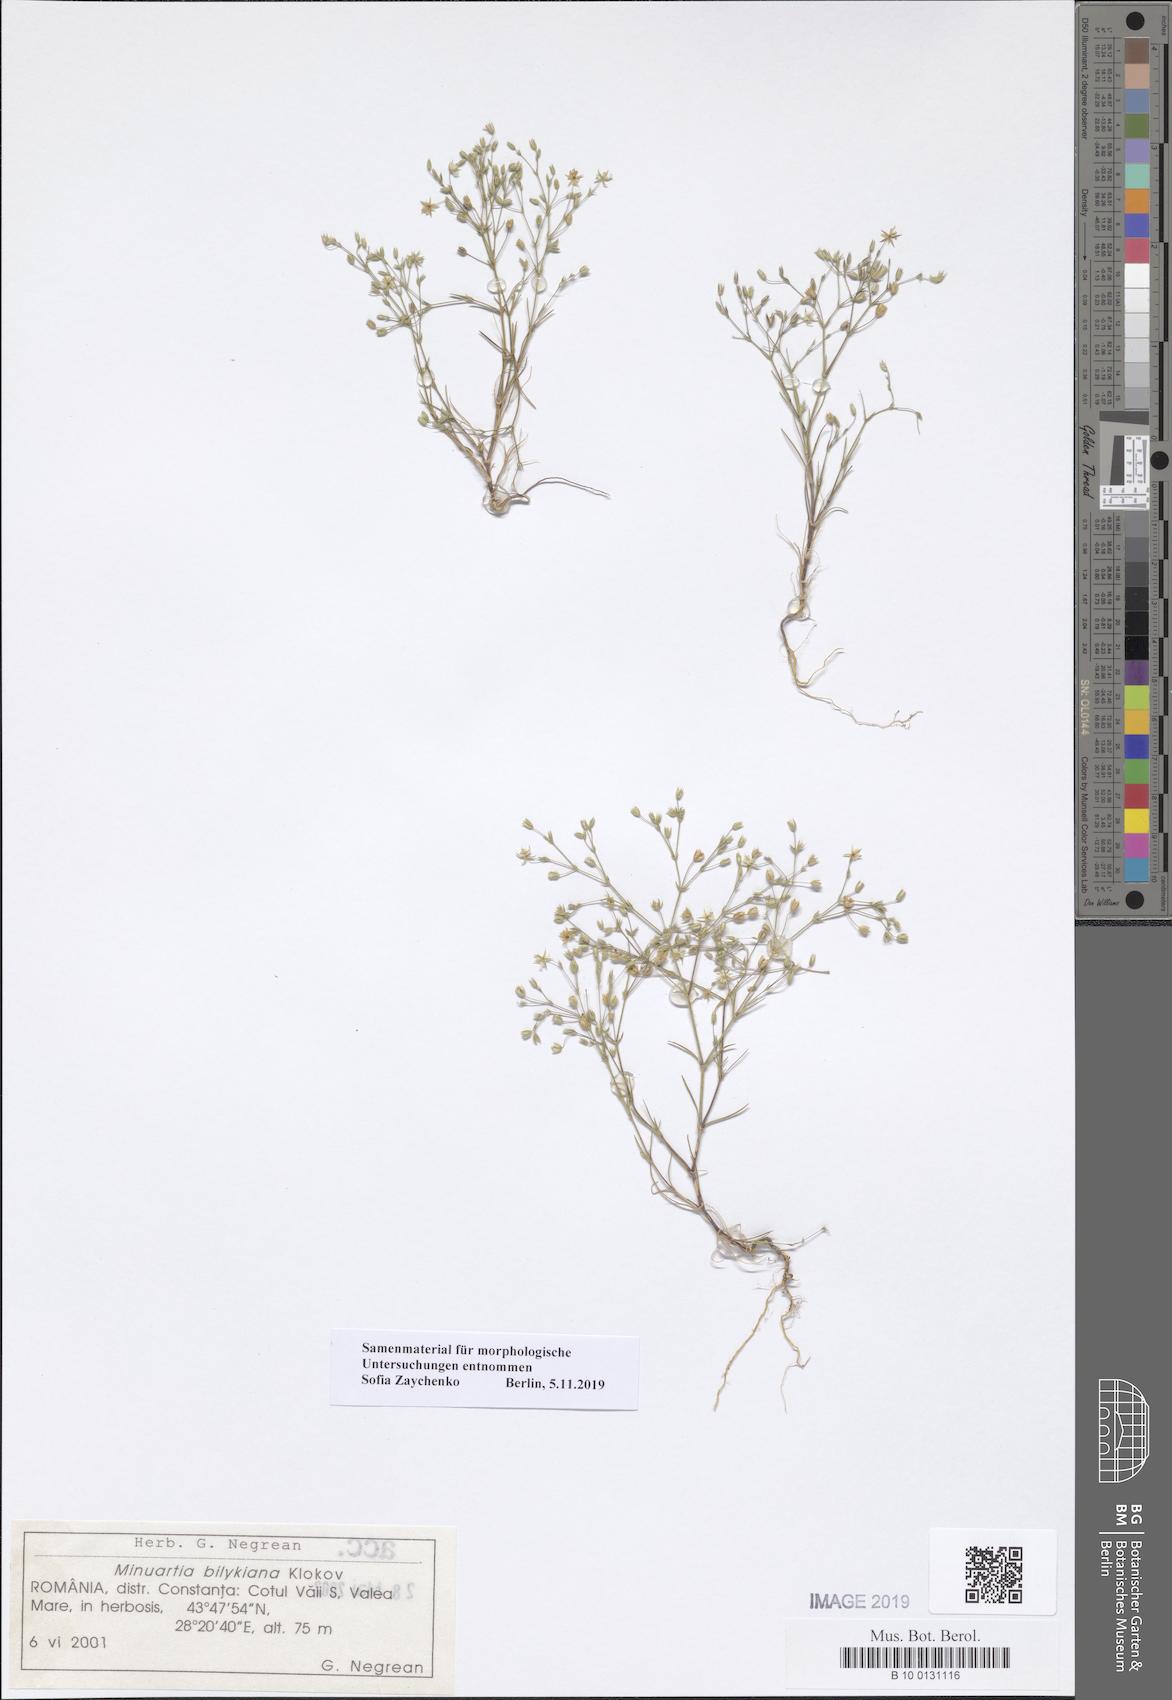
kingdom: Plantae
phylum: Tracheophyta
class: Magnoliopsida
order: Caryophyllales
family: Caryophyllaceae
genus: Sabulina
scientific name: Sabulina bilykiana
